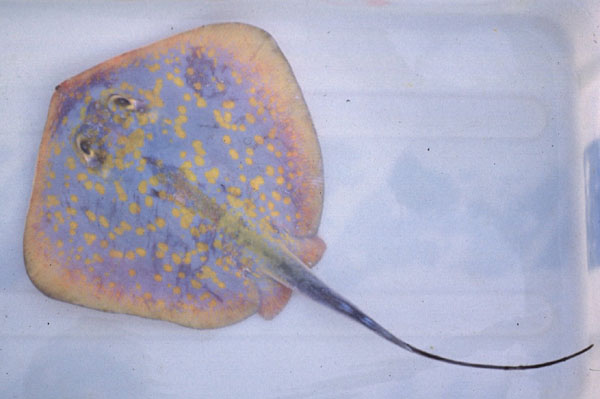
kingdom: Animalia
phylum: Chordata
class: Elasmobranchii
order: Myliobatiformes
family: Dasyatidae
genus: Dasyatis
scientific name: Dasyatis chrysonota
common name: Blue stingray
